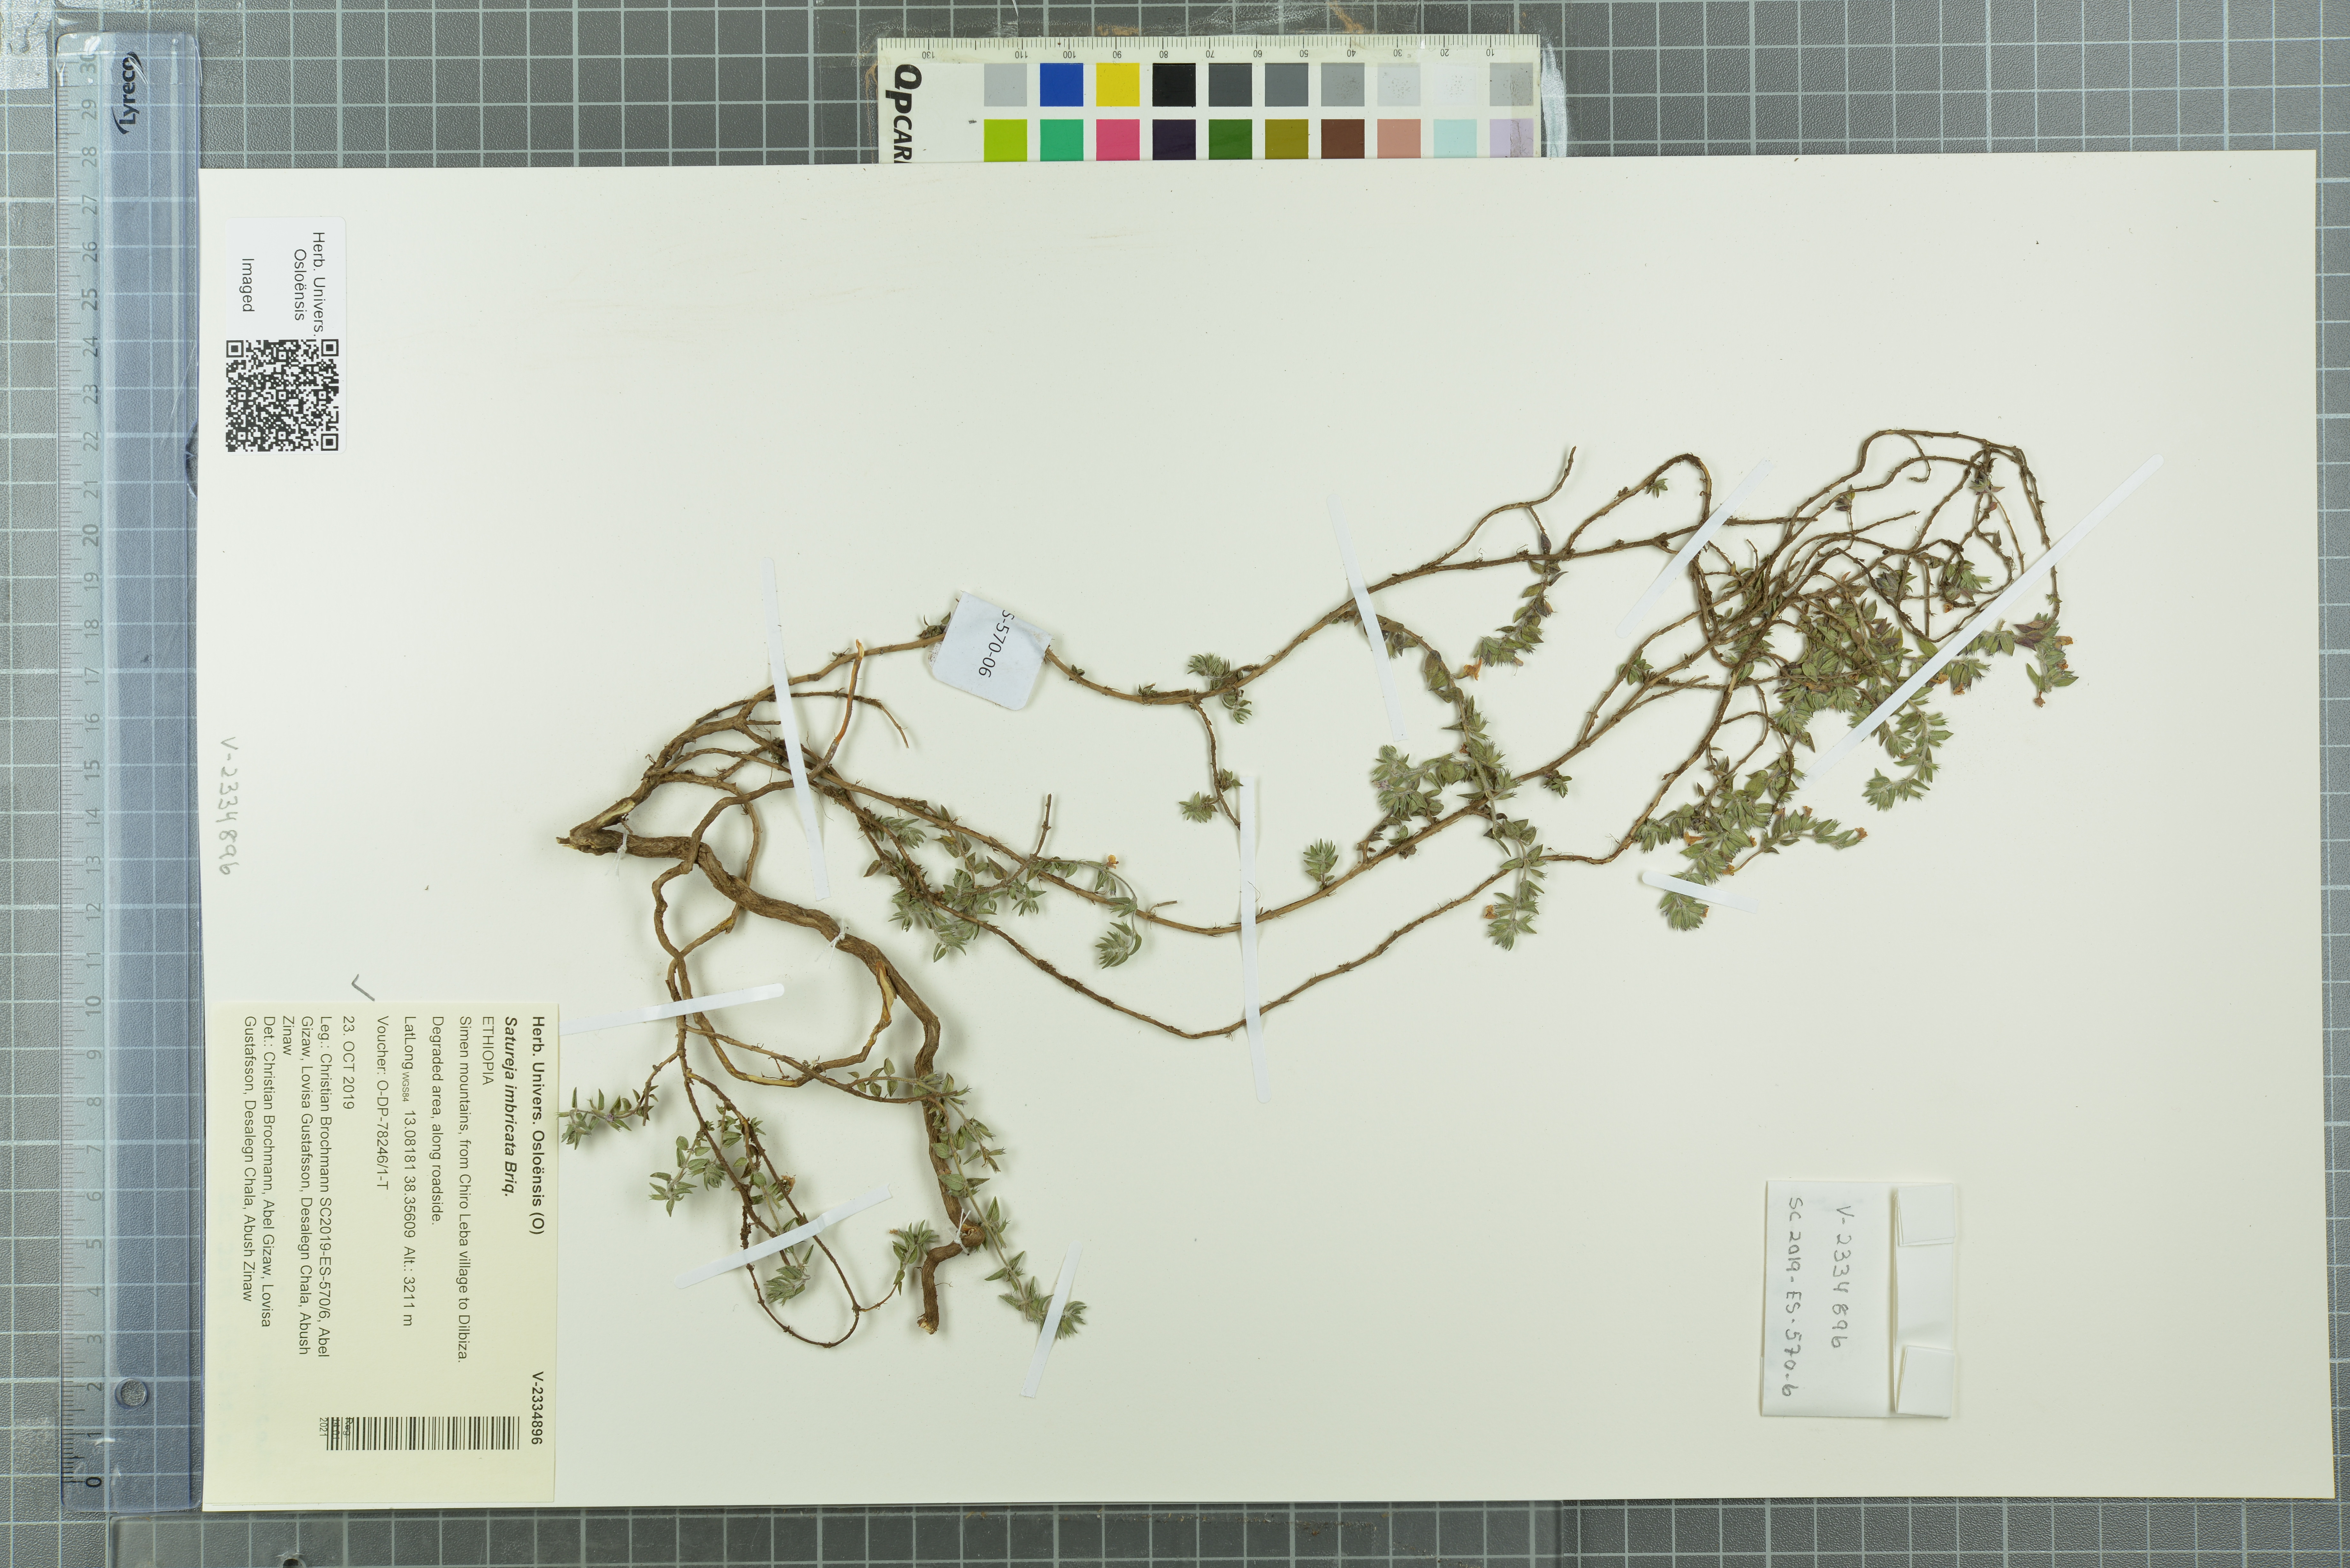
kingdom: Plantae
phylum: Tracheophyta
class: Magnoliopsida
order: Lamiales
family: Lamiaceae
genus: Micromeria
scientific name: Micromeria imbricata
